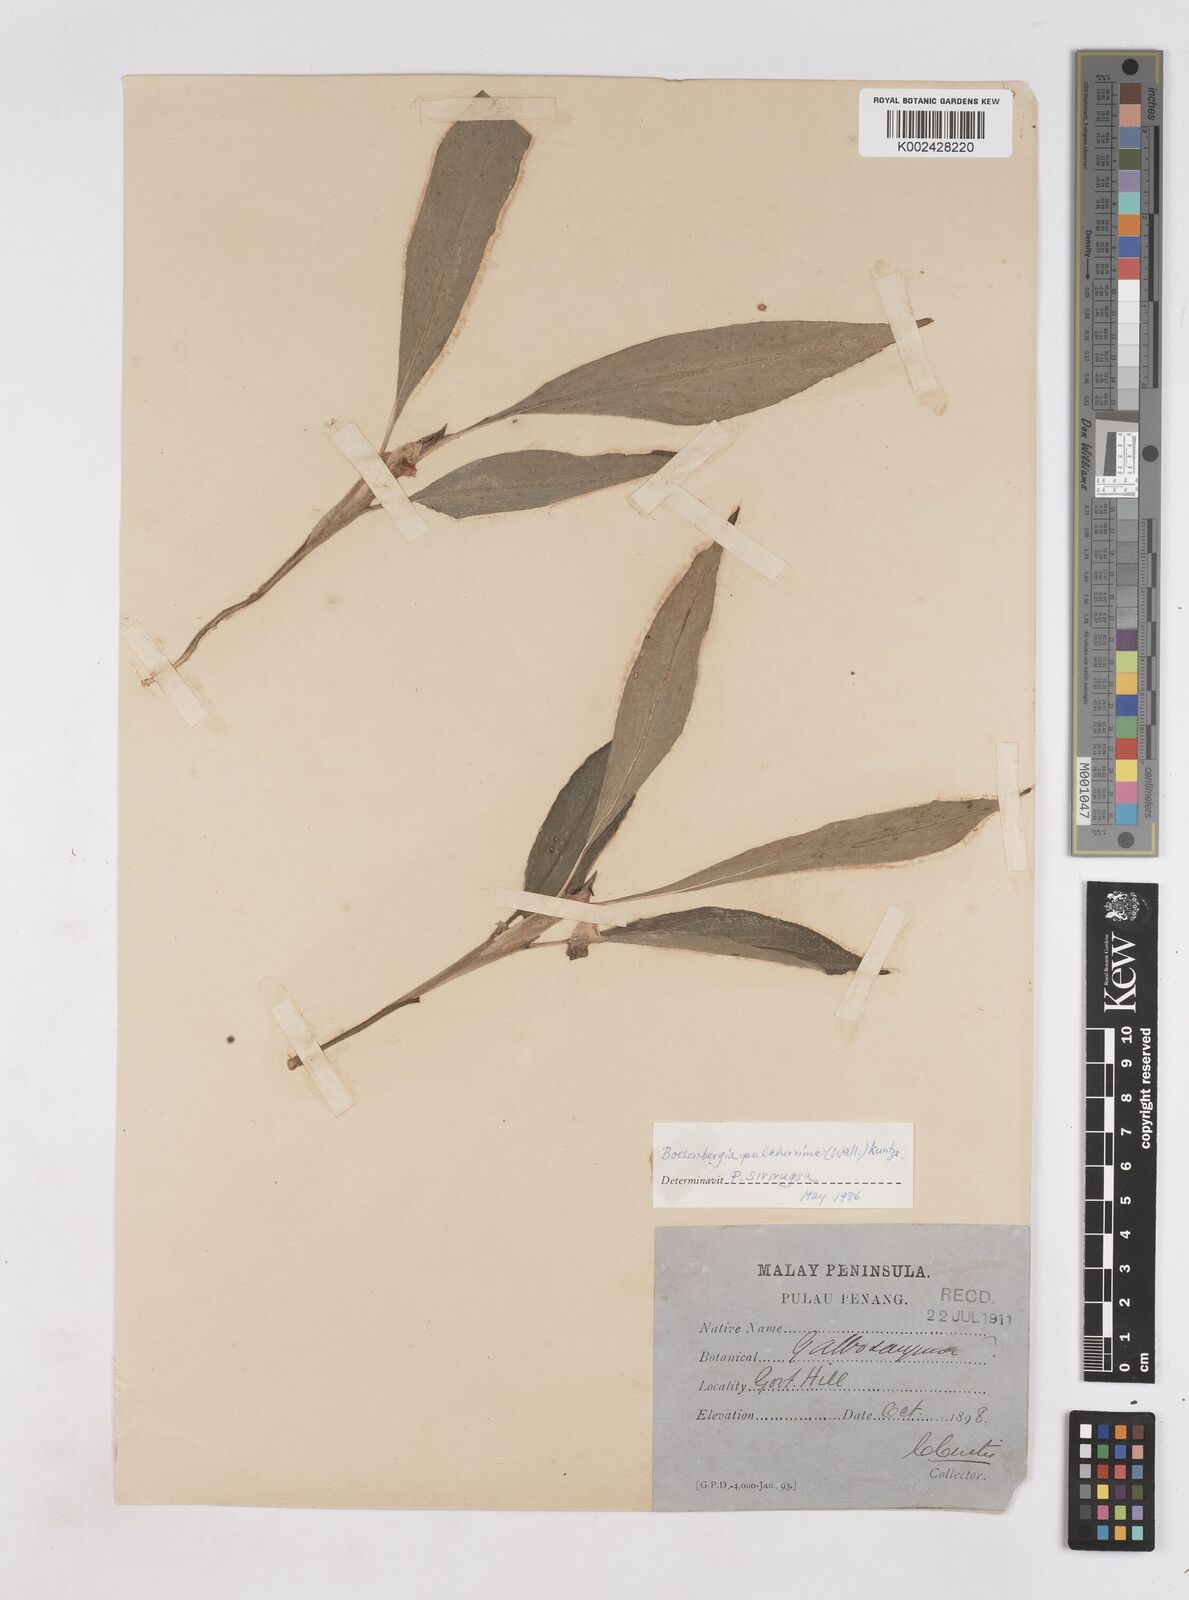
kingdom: Plantae
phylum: Tracheophyta
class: Liliopsida
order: Zingiberales
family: Zingiberaceae
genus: Boesenbergia
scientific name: Boesenbergia pulcherrima
